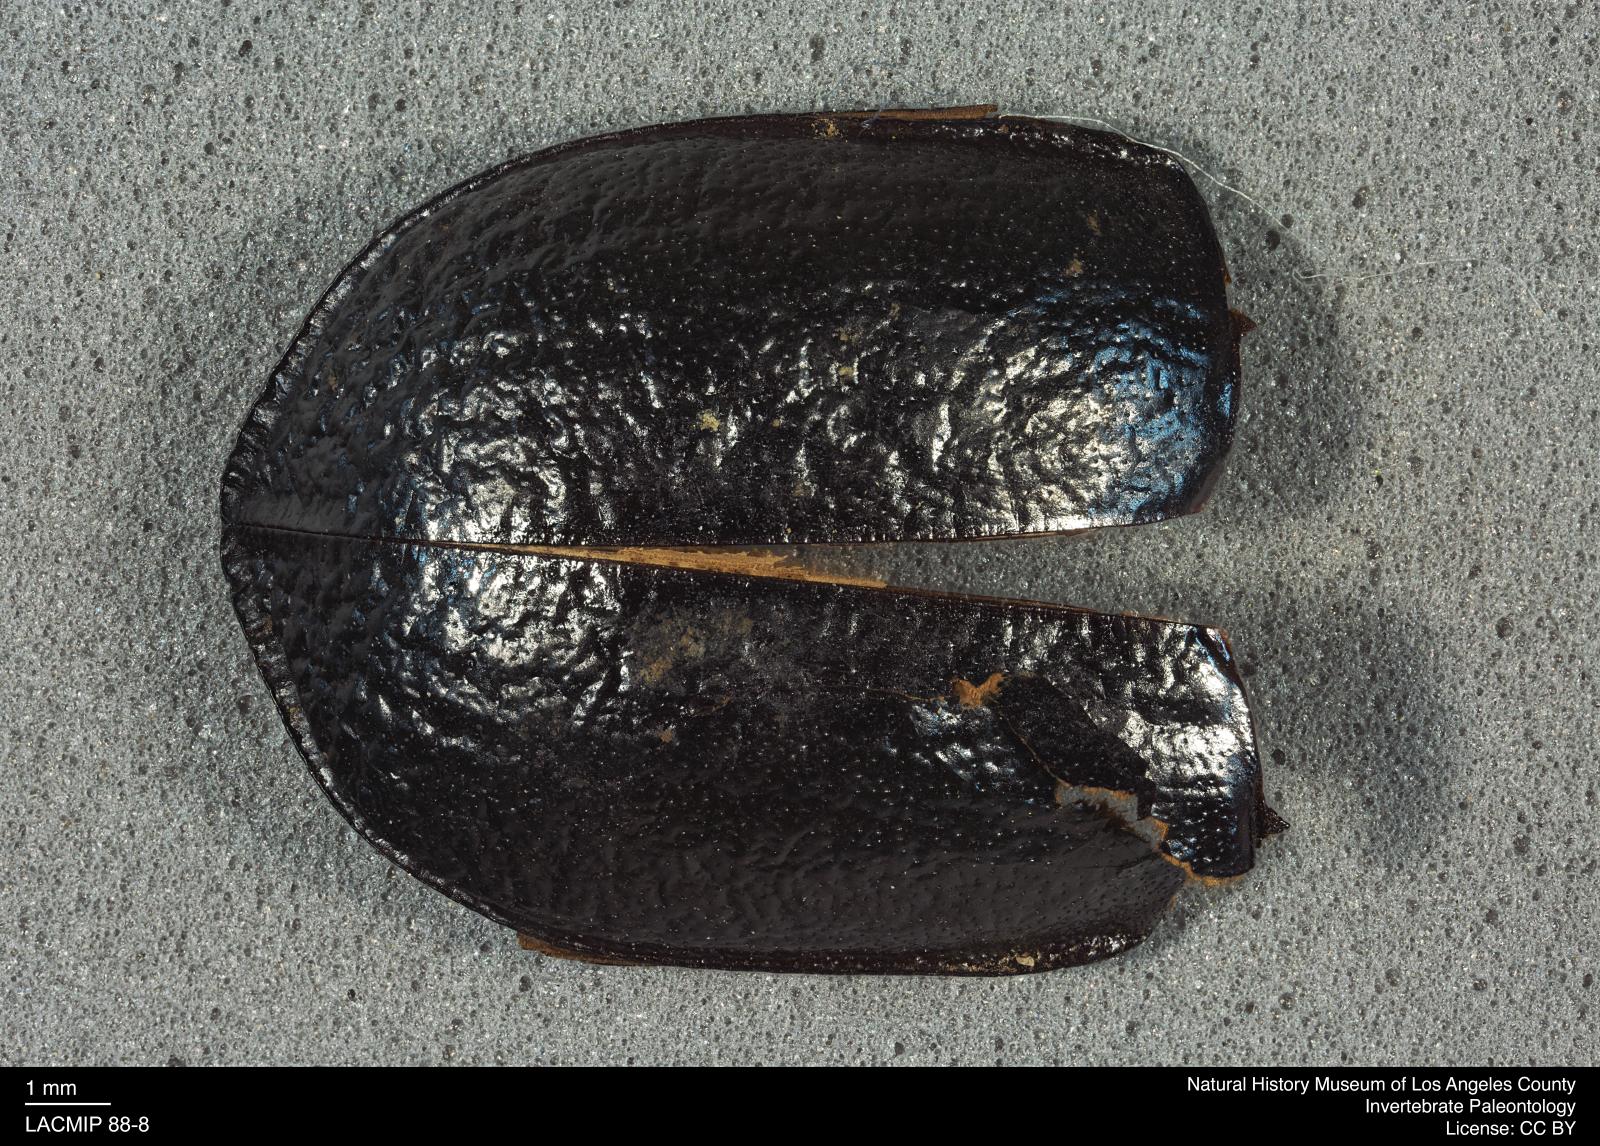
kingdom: Animalia
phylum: Arthropoda
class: Insecta
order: Coleoptera
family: Tenebrionidae
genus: Coniontis
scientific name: Coniontis abdominalis
